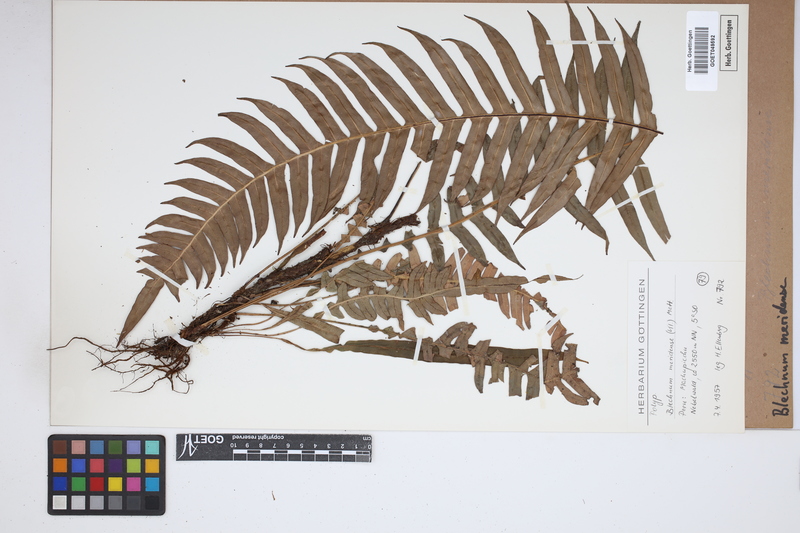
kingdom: Plantae
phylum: Tracheophyta
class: Polypodiopsida
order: Polypodiales
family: Blechnaceae
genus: Blechnum
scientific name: Blechnum meridense
